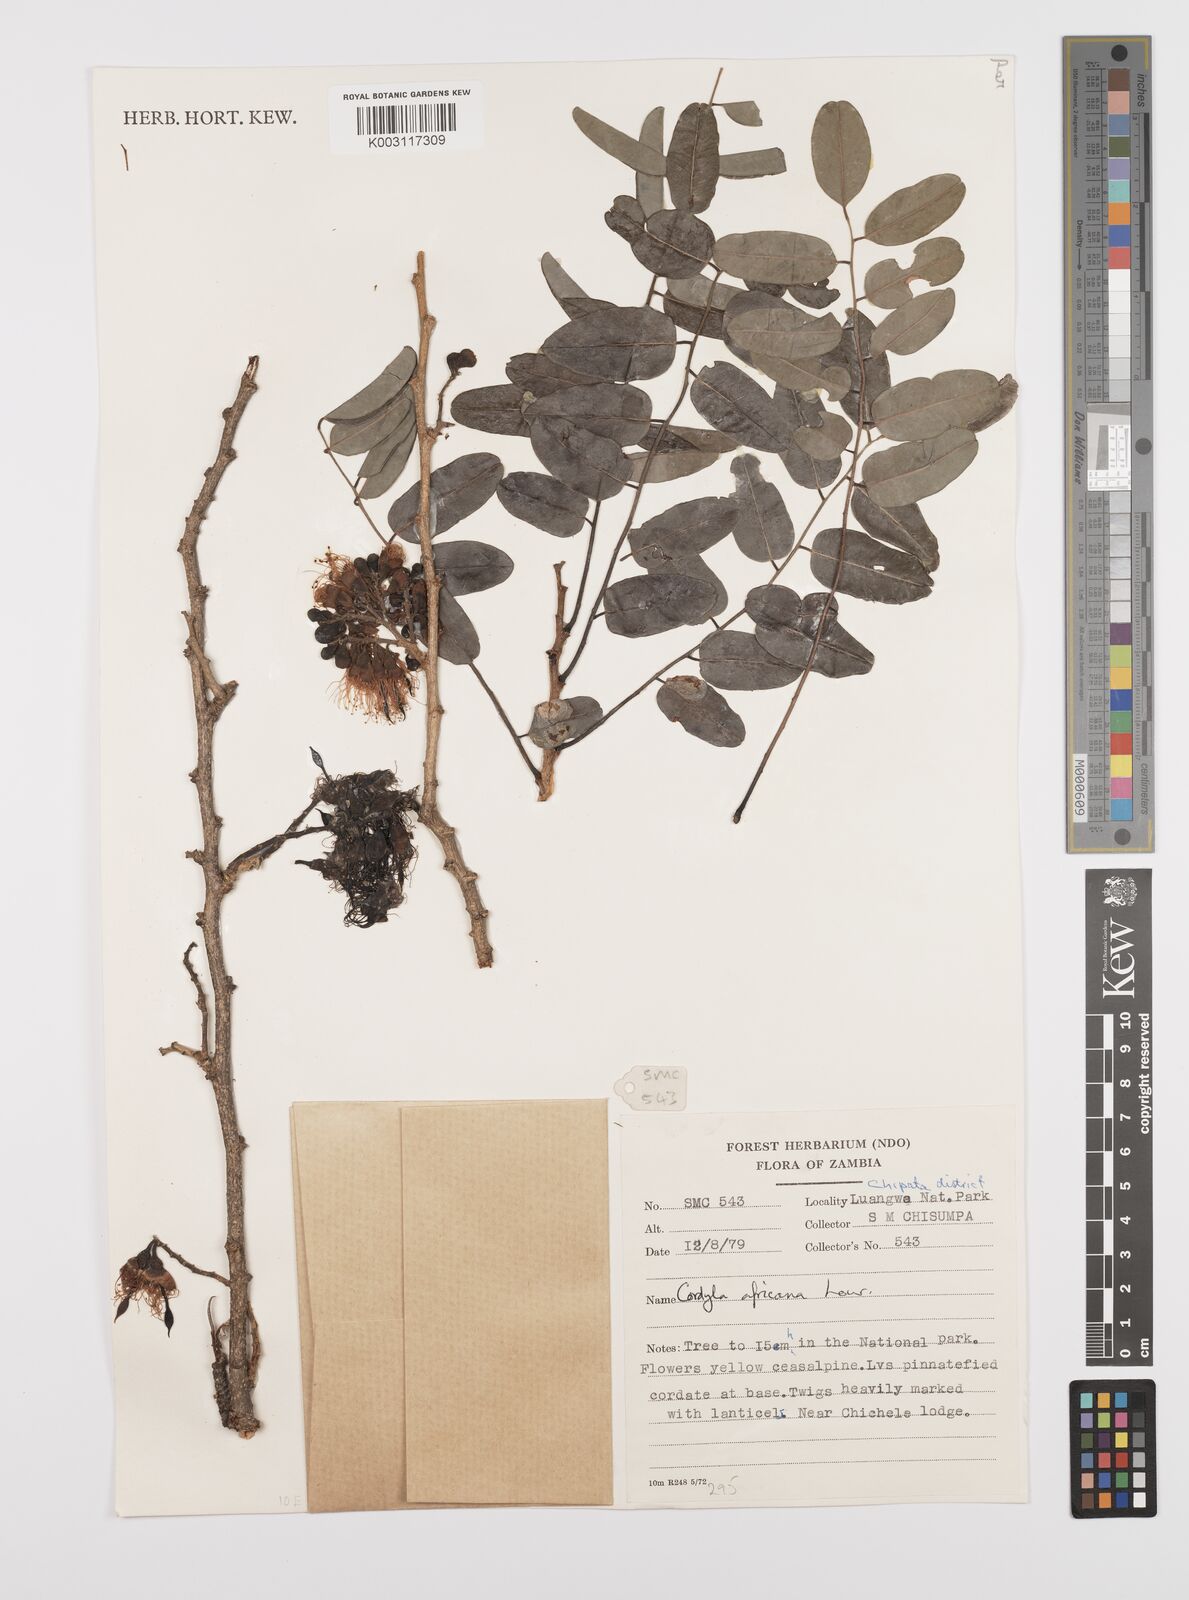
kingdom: Plantae
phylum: Tracheophyta
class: Magnoliopsida
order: Fabales
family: Fabaceae
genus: Cordyla
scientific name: Cordyla africana
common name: Wild mango
